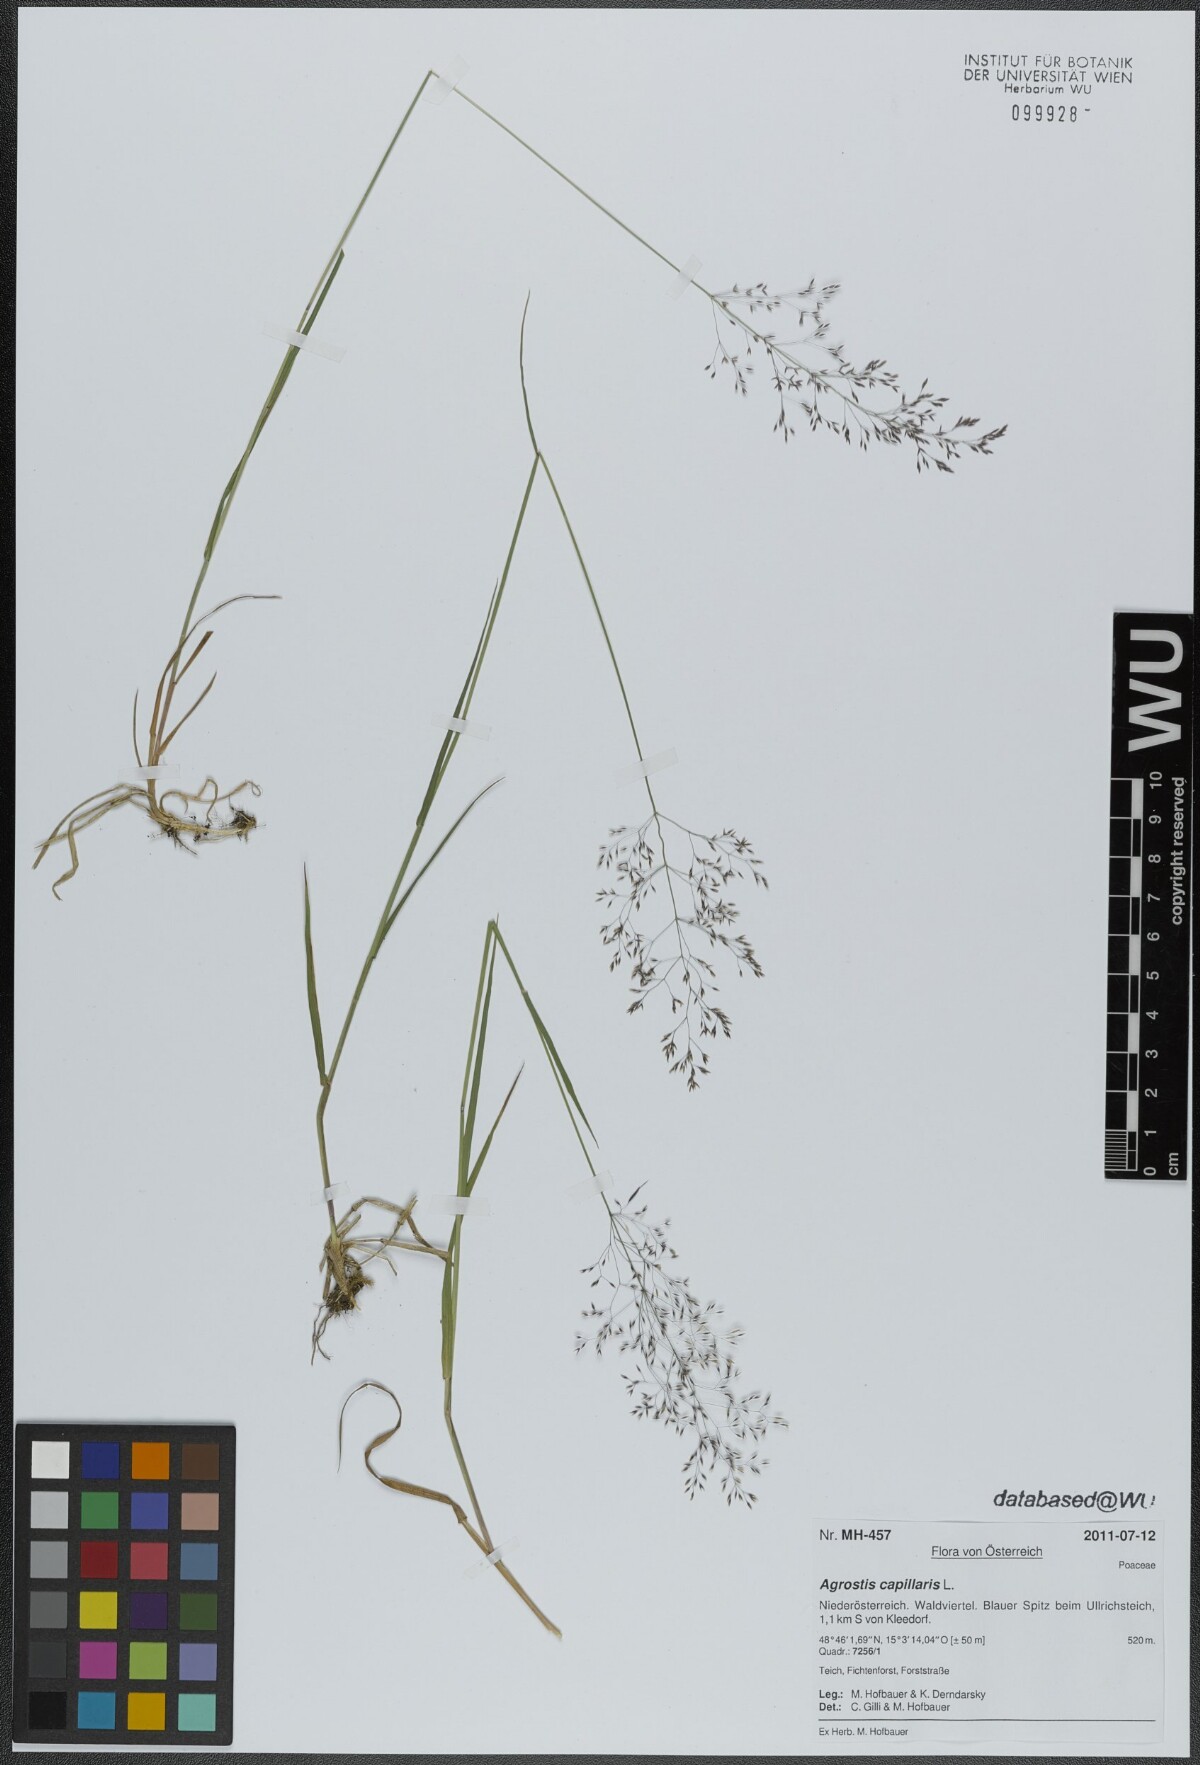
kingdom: Plantae
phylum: Tracheophyta
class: Liliopsida
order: Poales
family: Poaceae
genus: Agrostis
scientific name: Agrostis capillaris
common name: Colonial bentgrass
